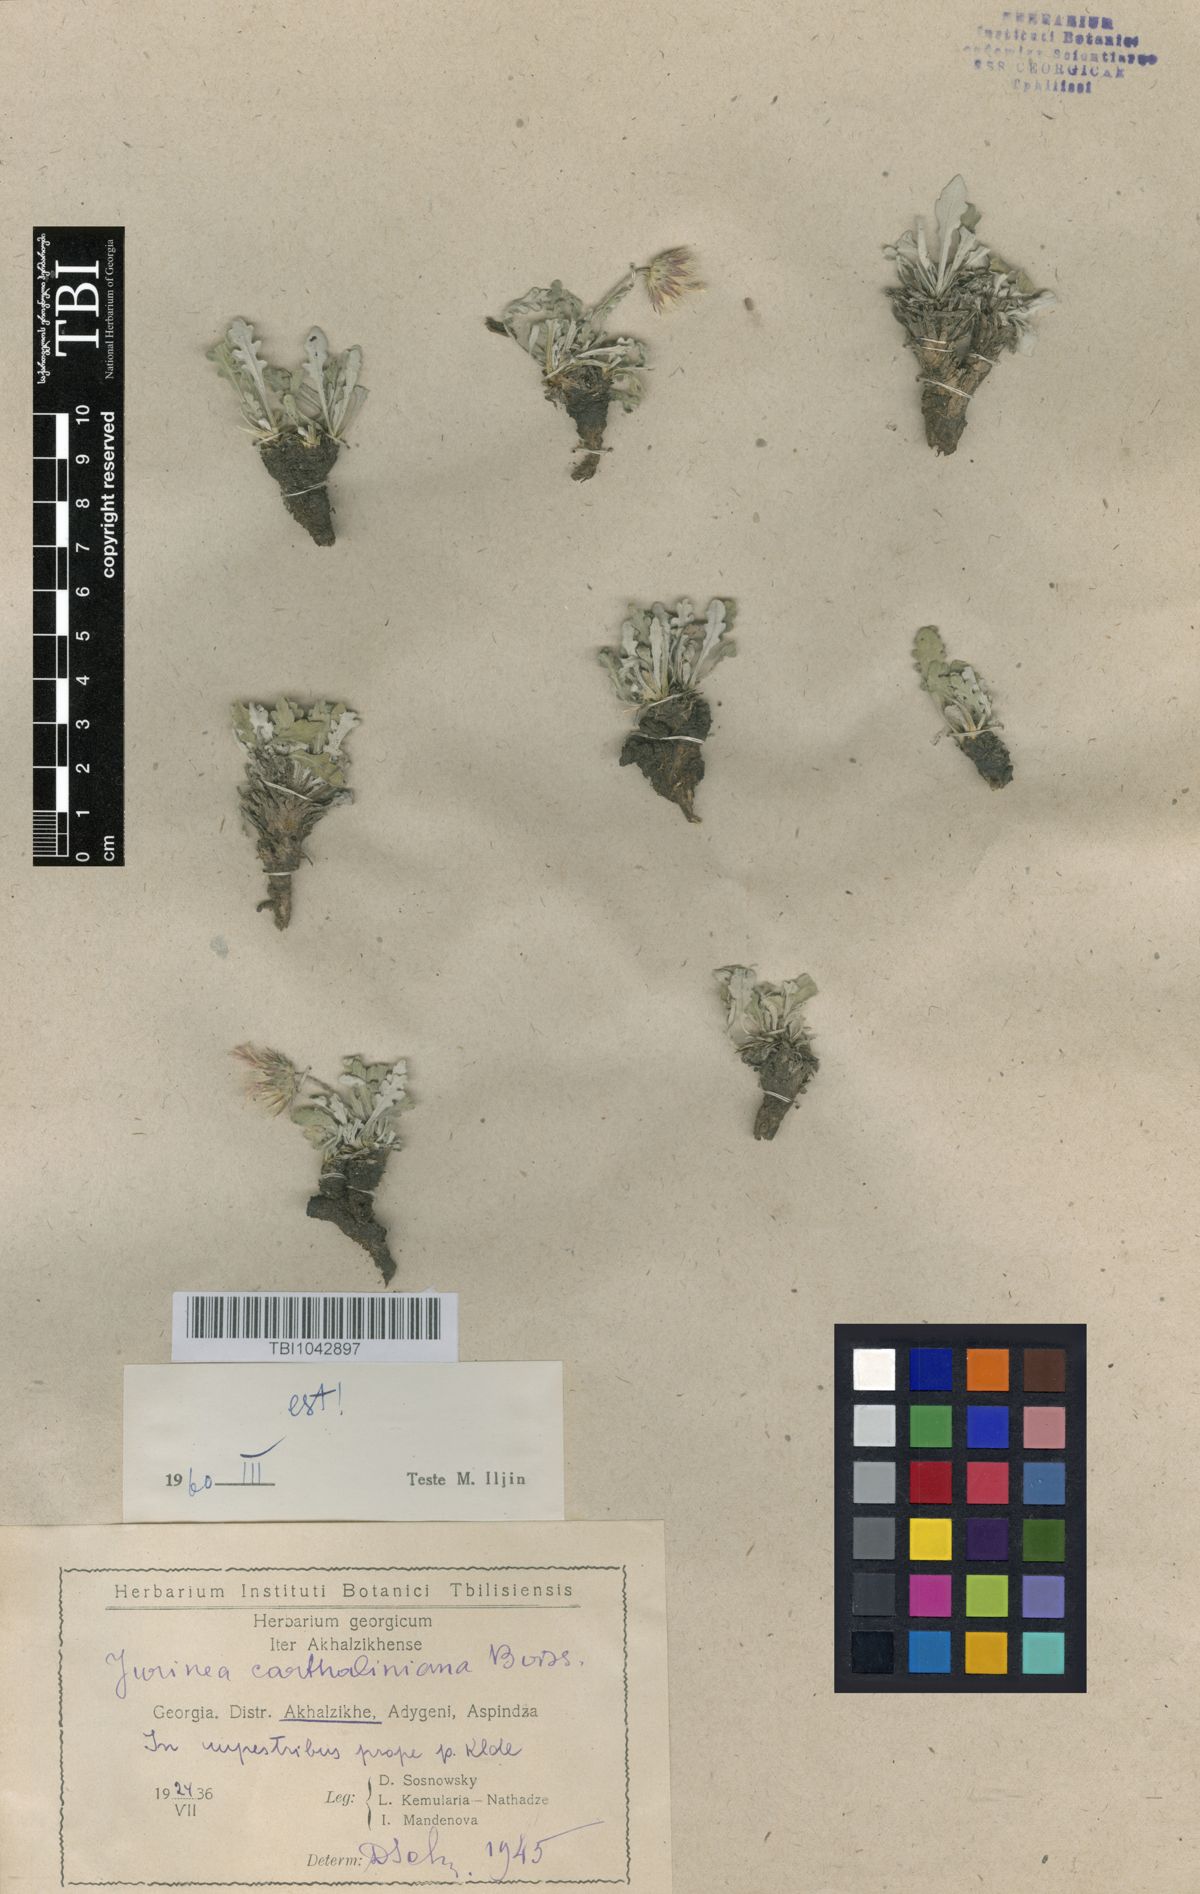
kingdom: Plantae
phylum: Tracheophyta
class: Magnoliopsida
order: Asterales
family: Asteraceae
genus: Jurinea
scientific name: Jurinea cartaliniana
